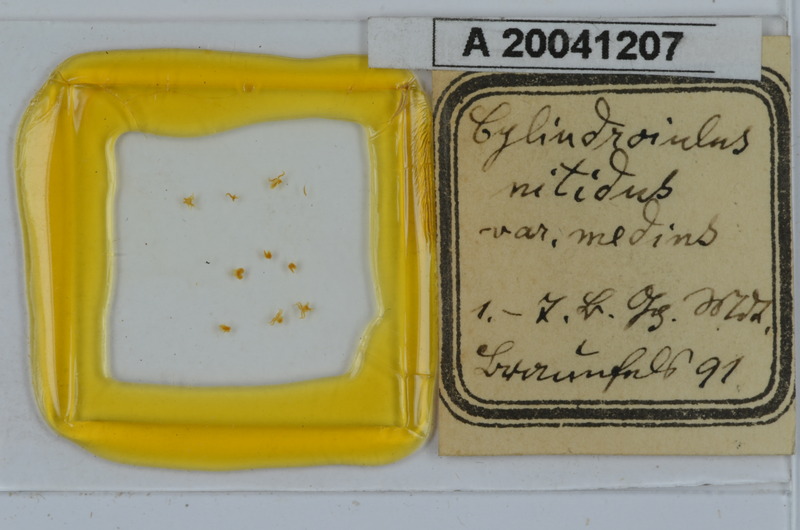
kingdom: Animalia
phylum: Arthropoda
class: Diplopoda
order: Julida
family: Julidae
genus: Allajulus
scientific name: Allajulus nitidus
